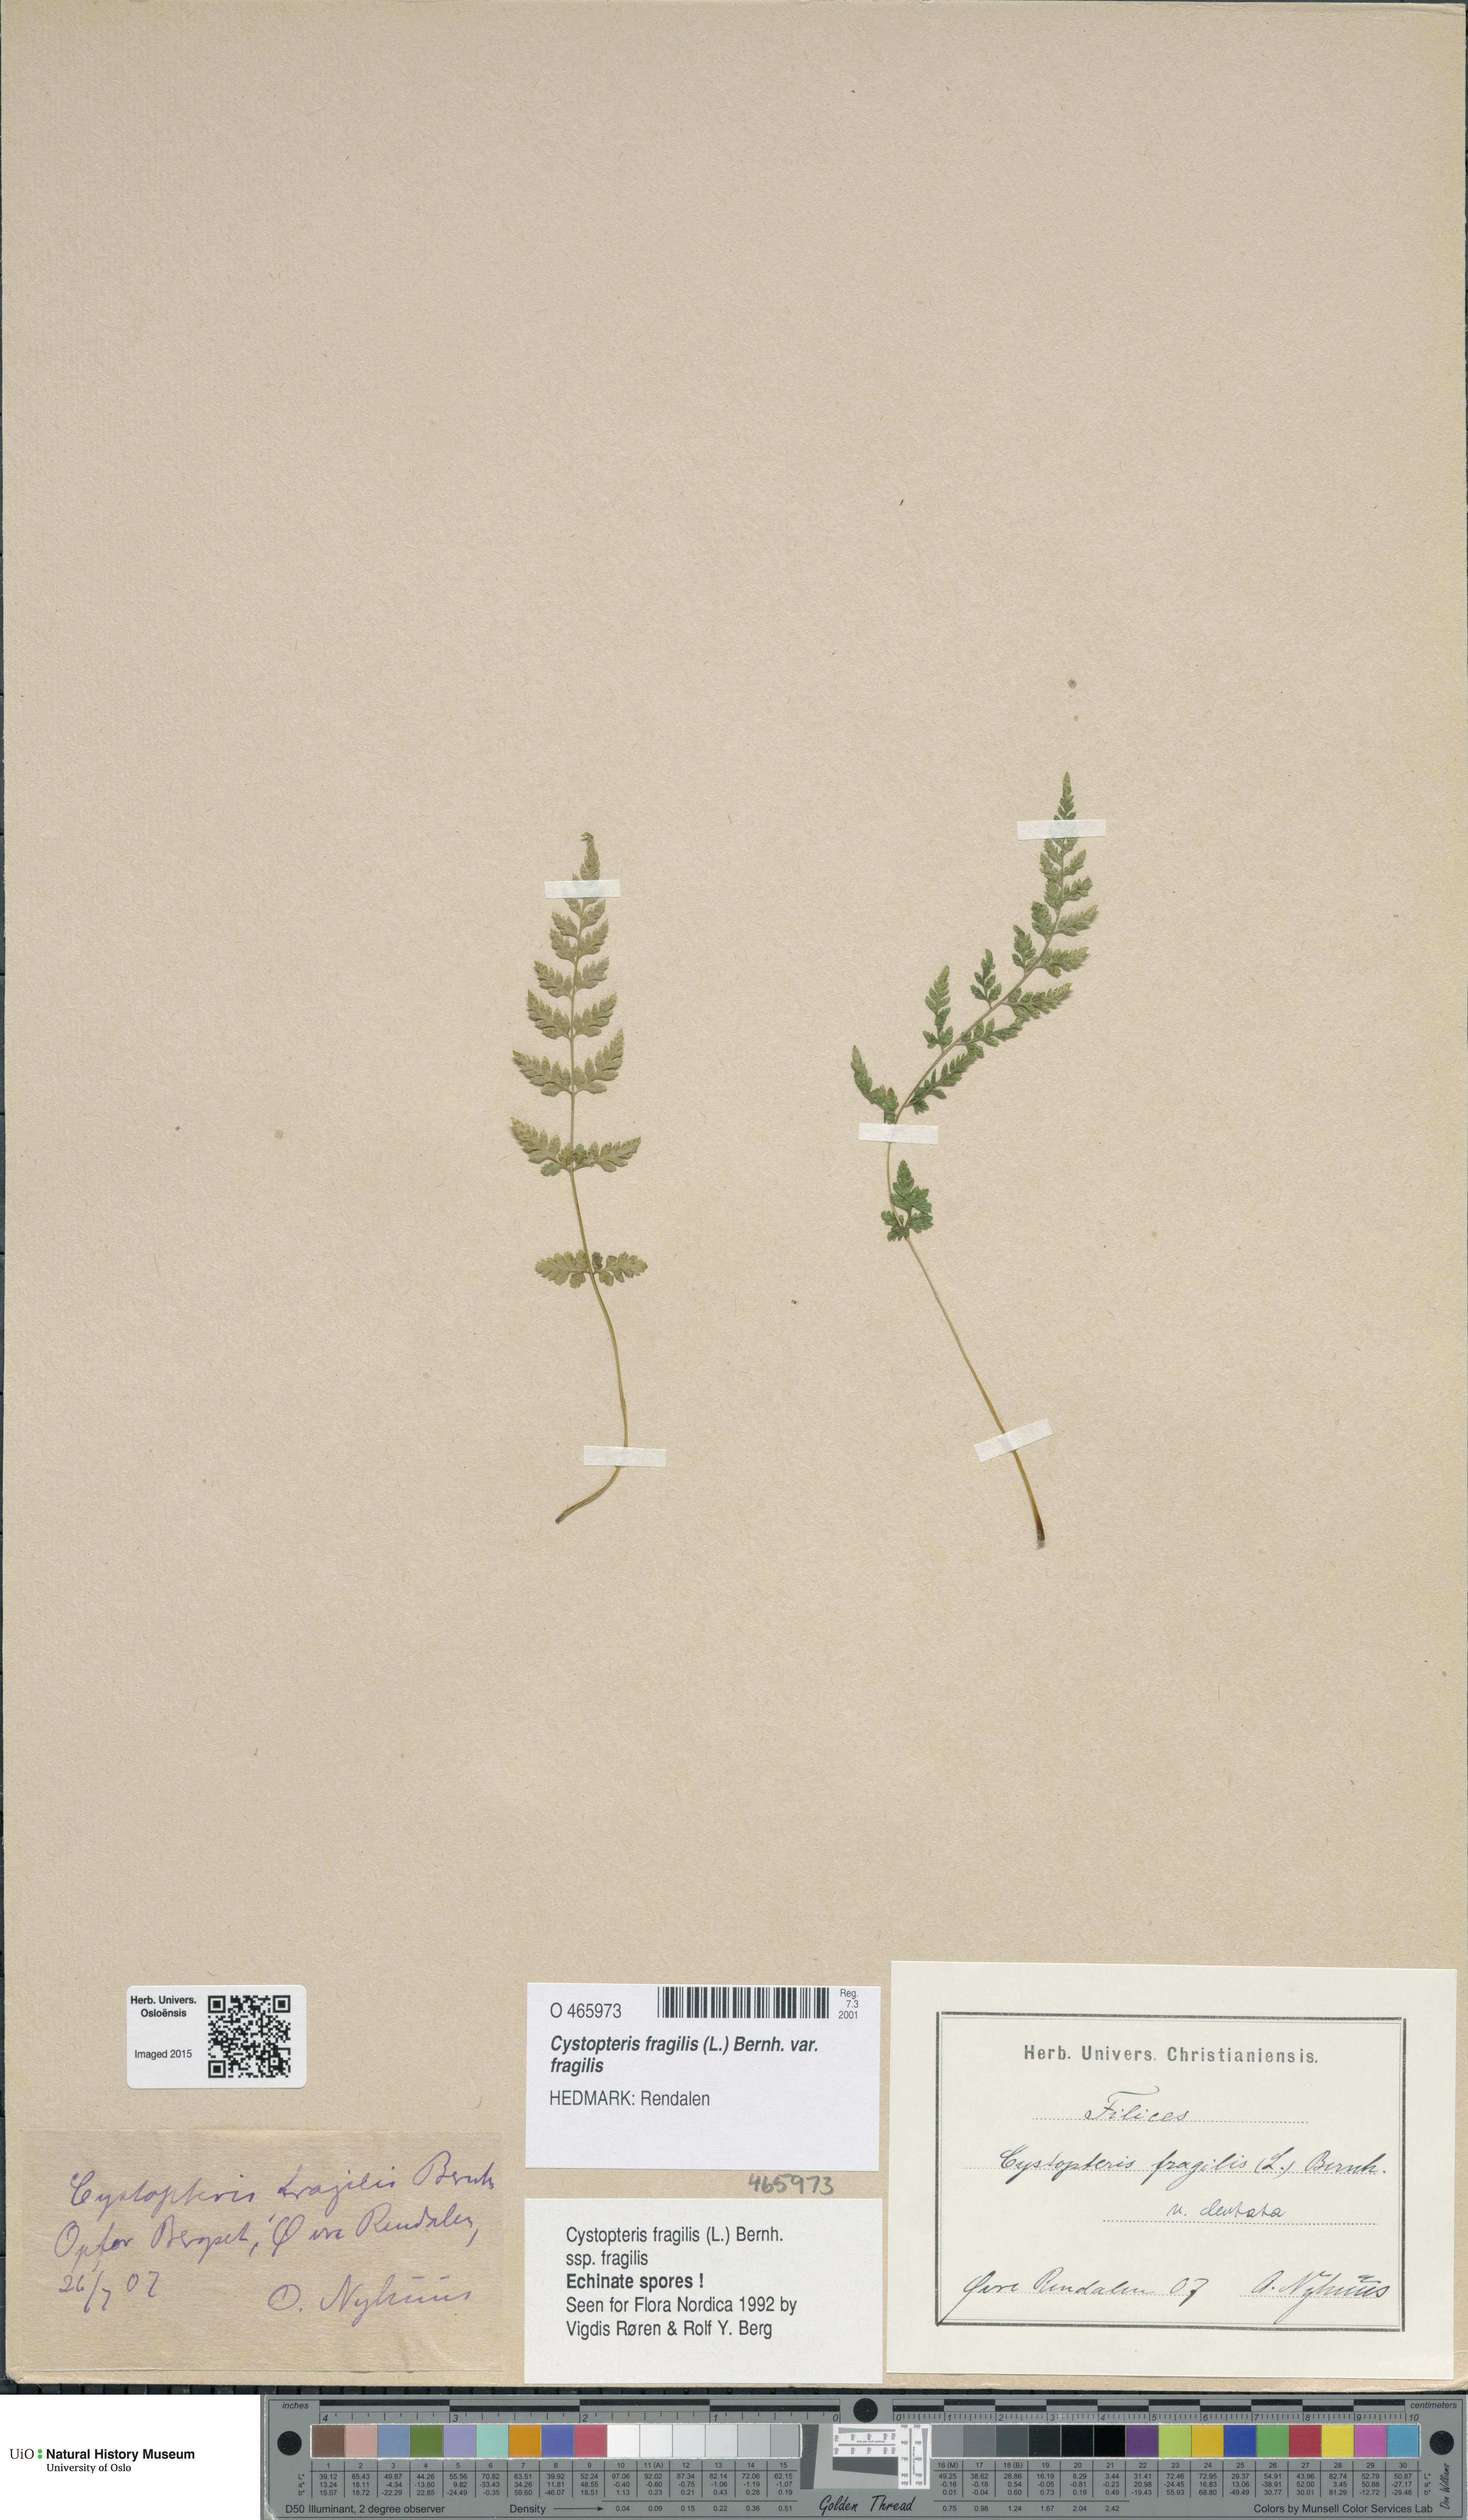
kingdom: Plantae
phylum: Tracheophyta
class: Polypodiopsida
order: Polypodiales
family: Cystopteridaceae
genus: Cystopteris
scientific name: Cystopteris fragilis
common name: Brittle bladder fern
